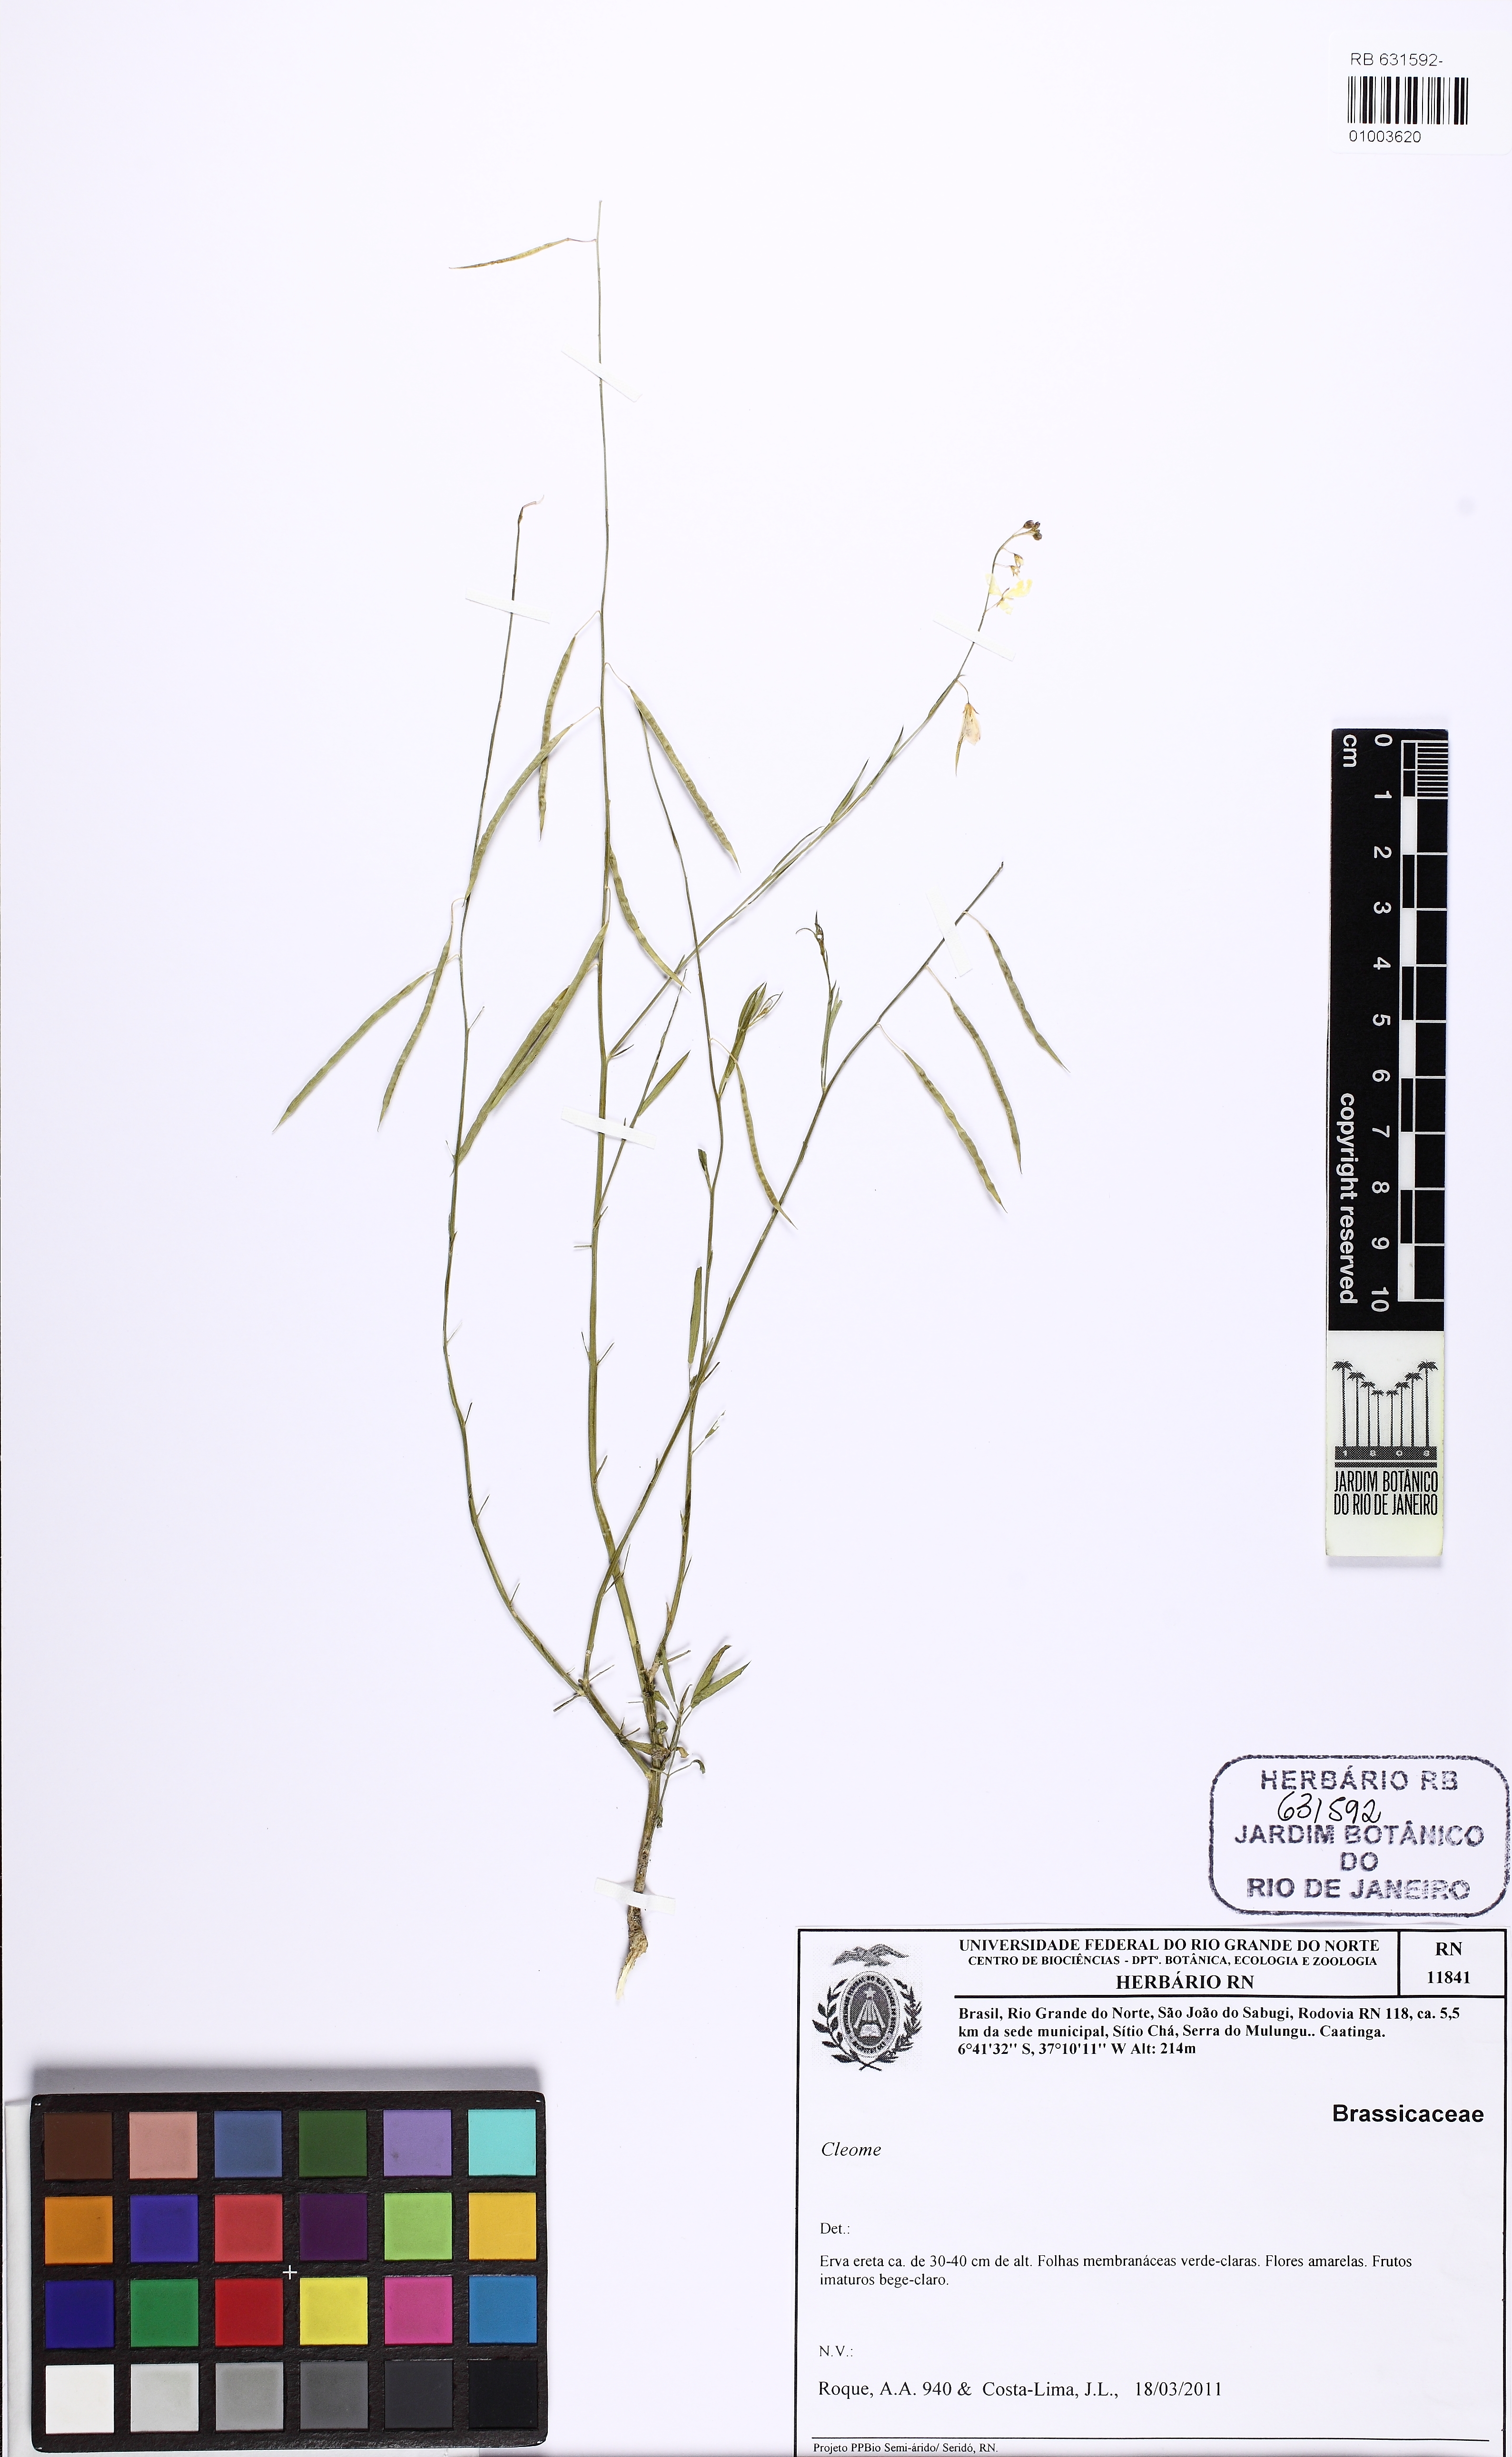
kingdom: Plantae
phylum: Tracheophyta
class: Magnoliopsida
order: Brassicales
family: Cleomaceae
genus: Physostemon
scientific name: Physostemon lanceolatus
